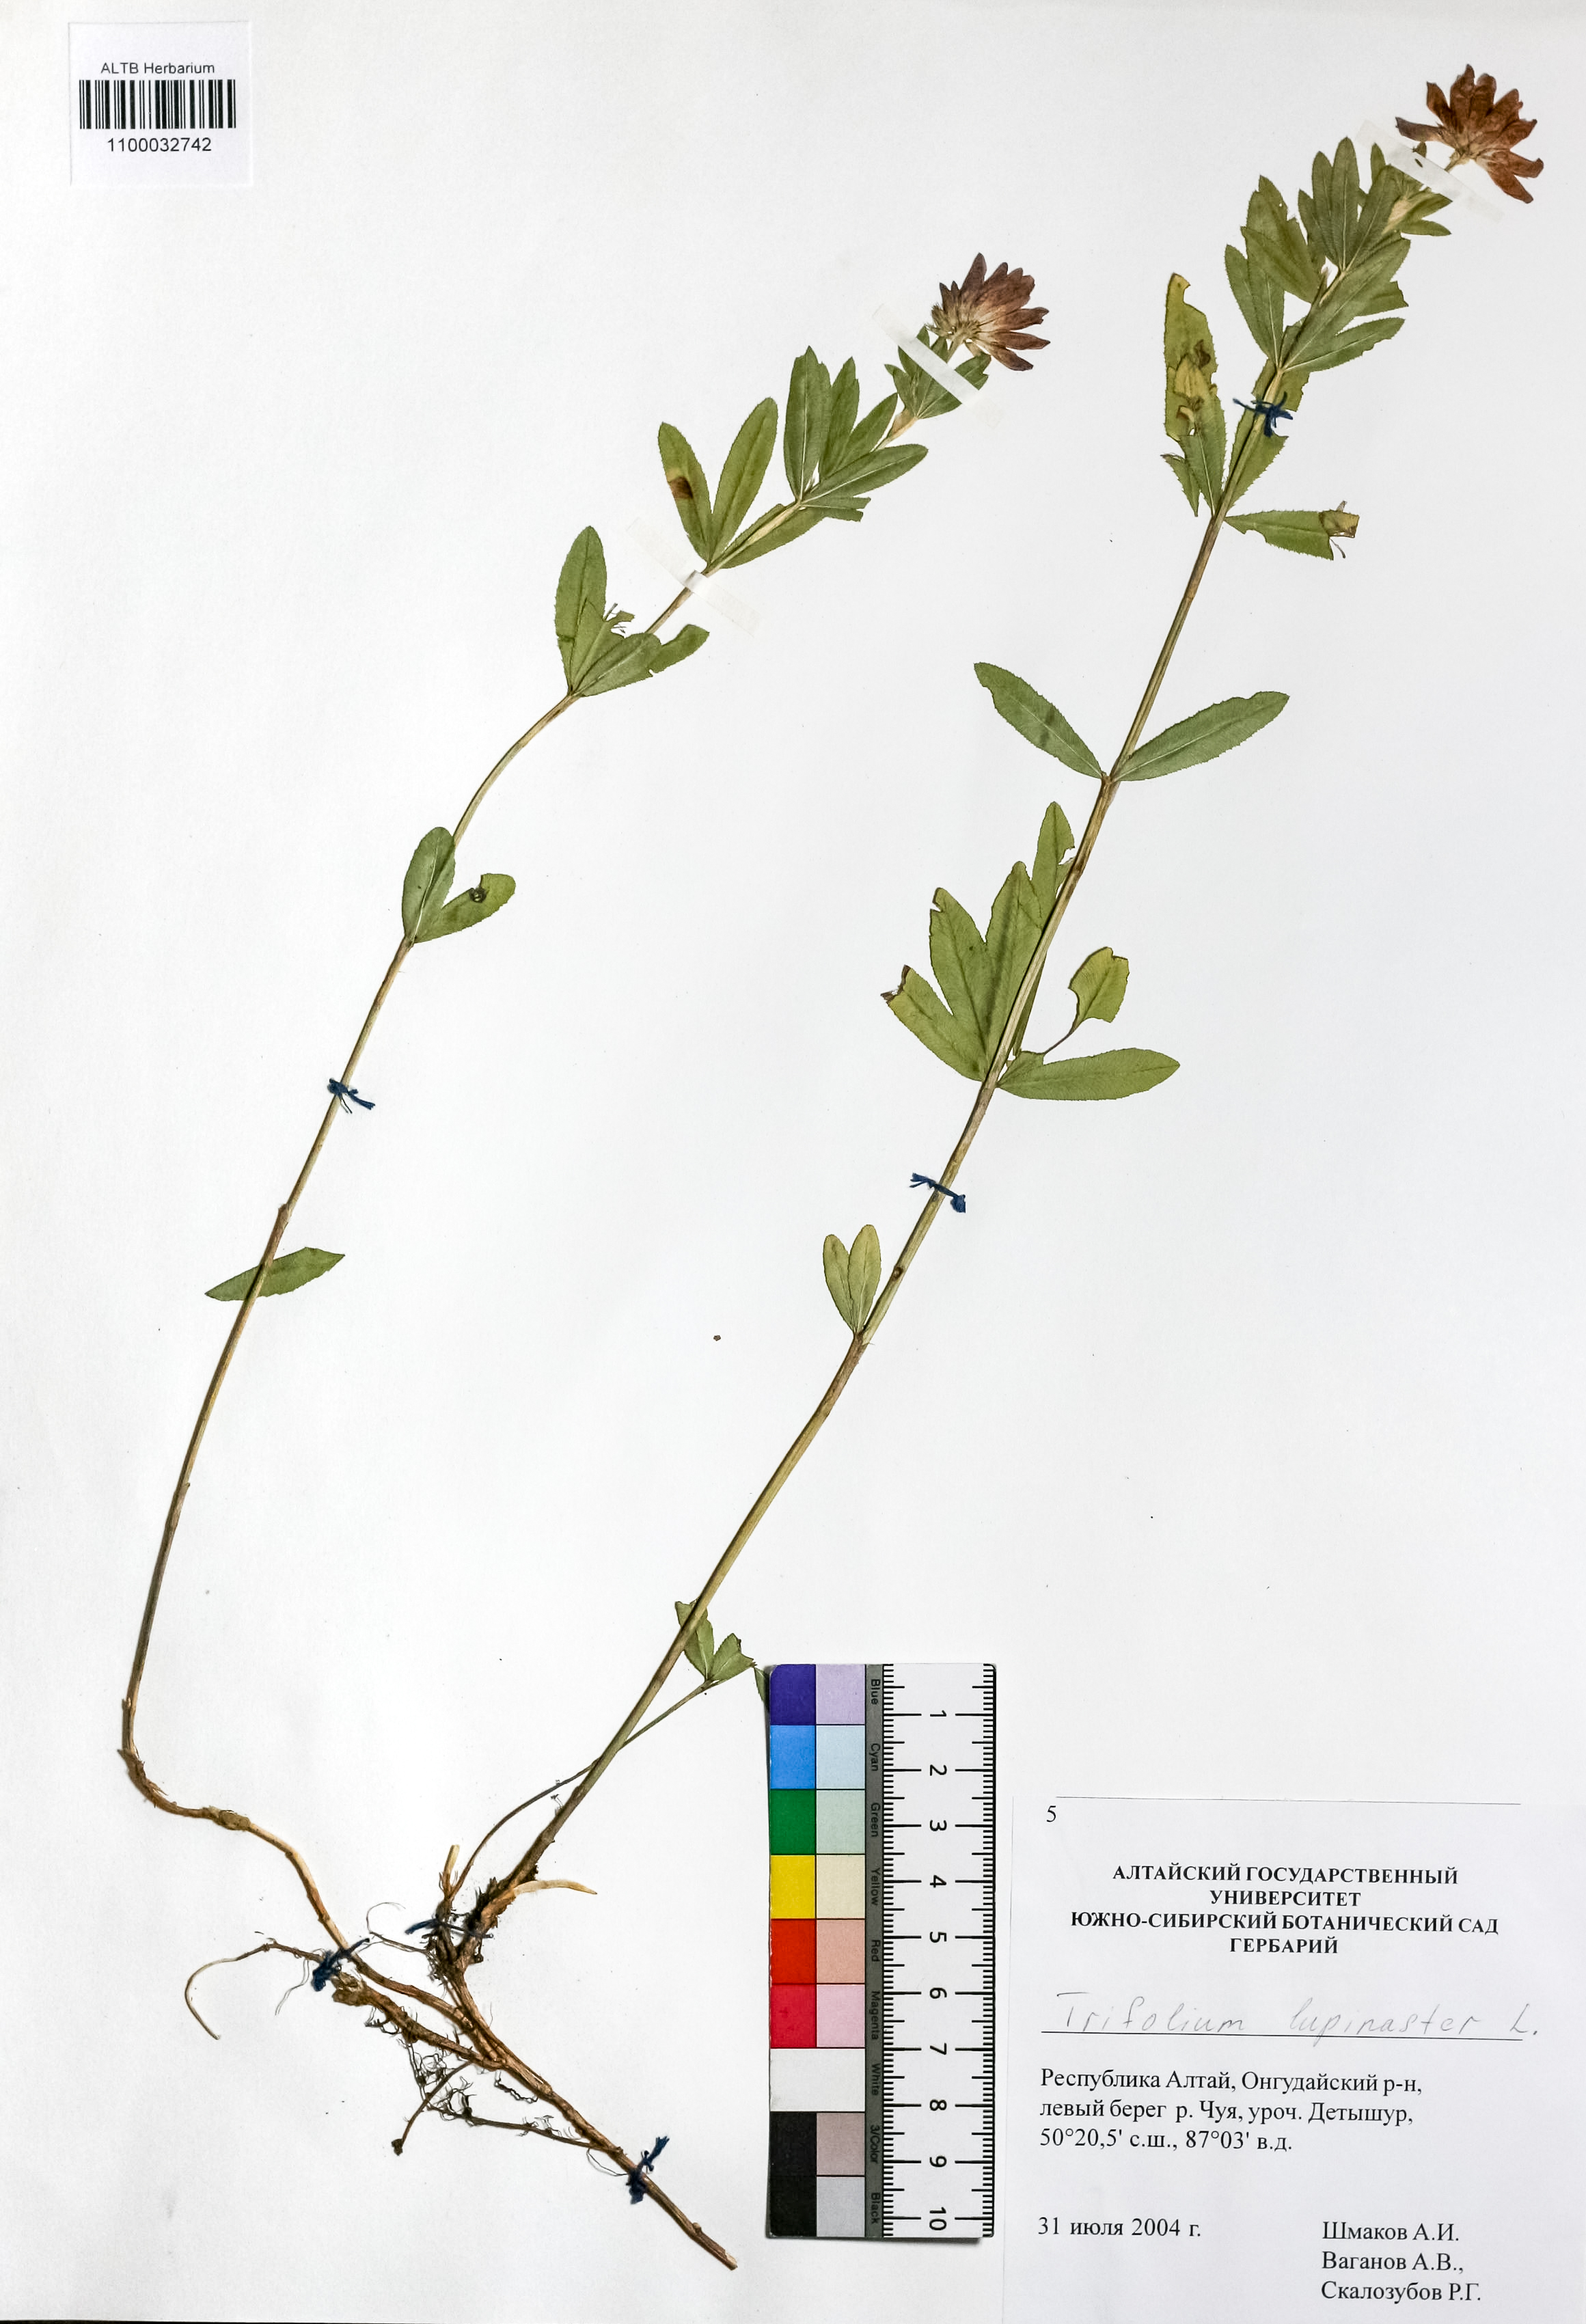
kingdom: Plantae
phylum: Tracheophyta
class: Magnoliopsida
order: Fabales
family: Fabaceae
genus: Trifolium
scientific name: Trifolium lupinaster
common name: Lupine clover
